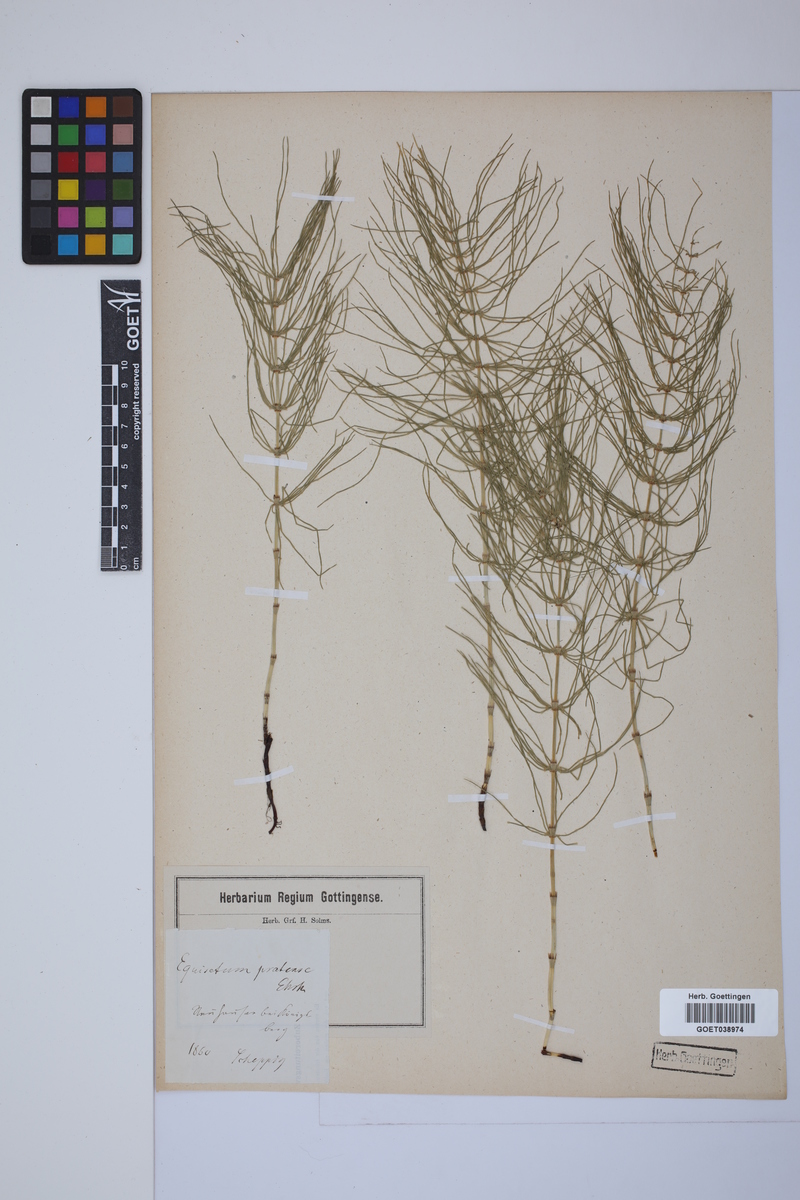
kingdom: Plantae
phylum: Tracheophyta
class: Polypodiopsida
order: Equisetales
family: Equisetaceae
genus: Equisetum
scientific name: Equisetum pratense
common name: Meadow horsetail
